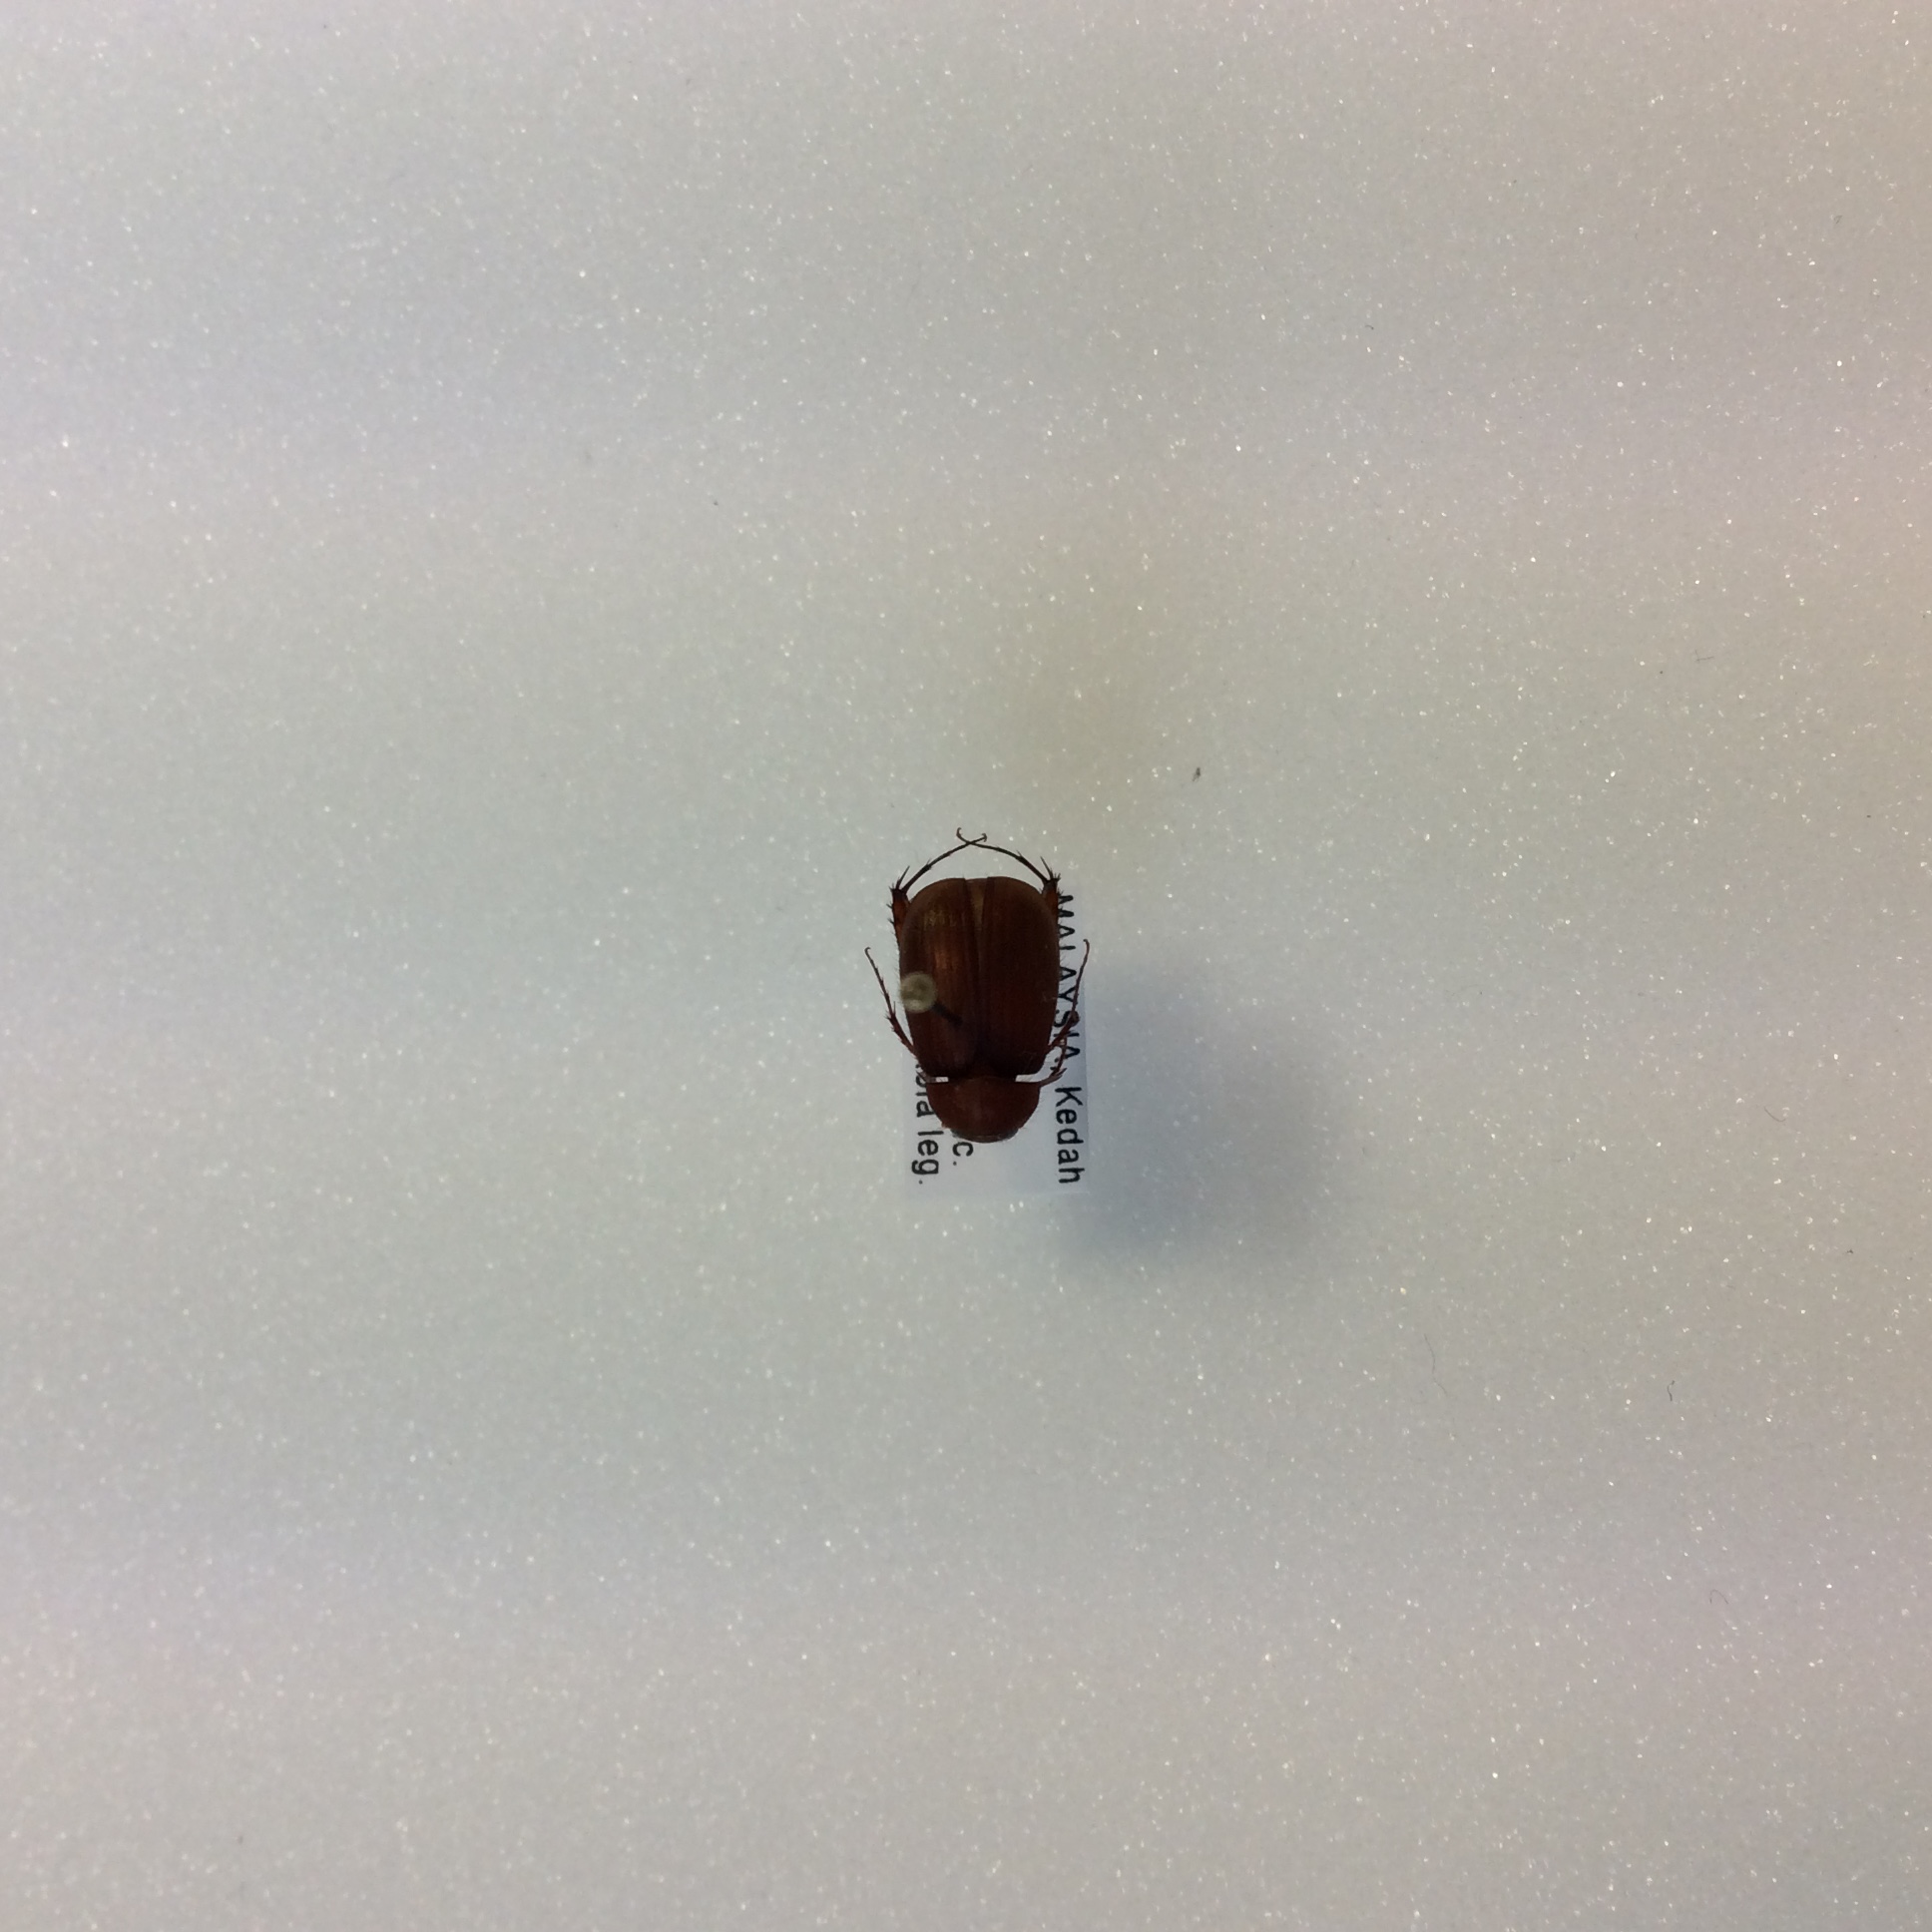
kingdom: Animalia
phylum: Arthropoda
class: Insecta
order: Coleoptera
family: Melolonthidae
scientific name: Melolonthidae
